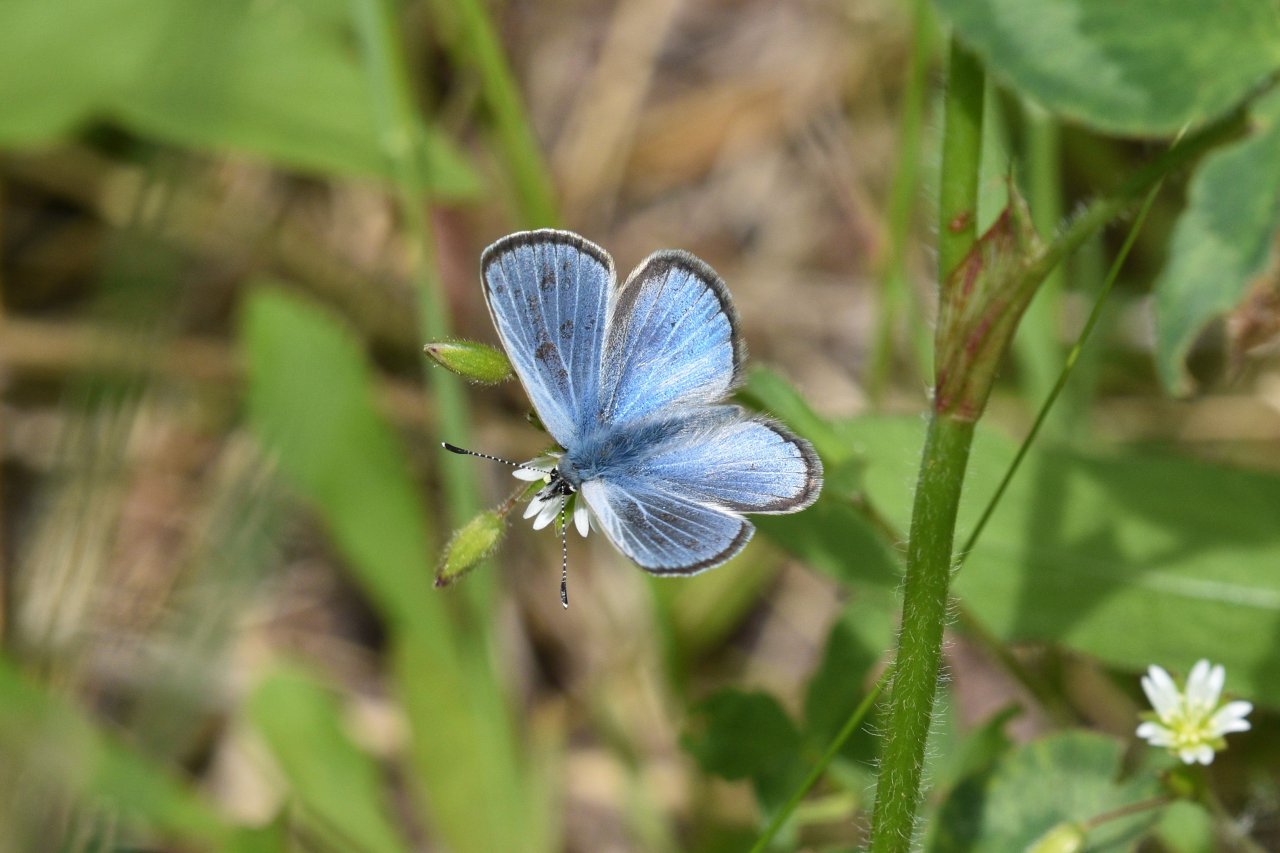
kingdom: Animalia
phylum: Arthropoda
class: Insecta
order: Lepidoptera
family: Lycaenidae
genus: Glaucopsyche
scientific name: Glaucopsyche lygdamus
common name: Silvery Blue
